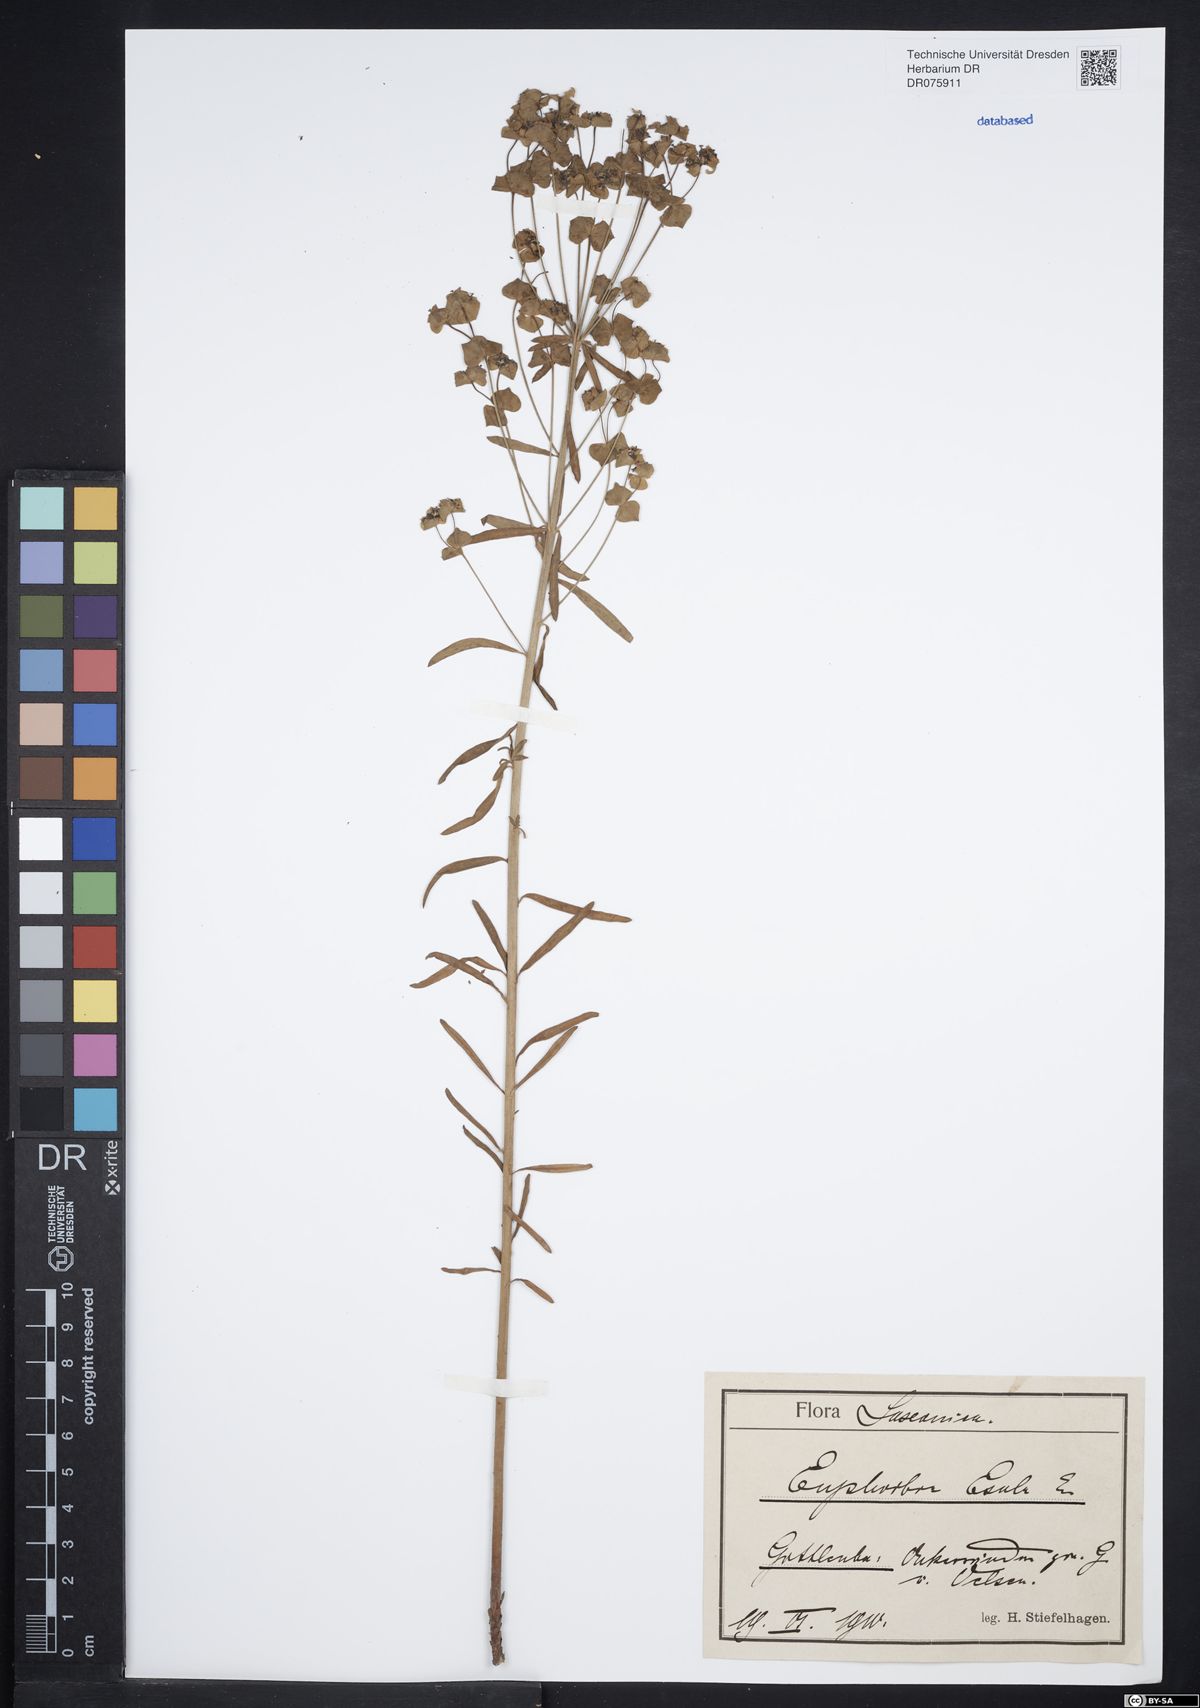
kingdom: Plantae
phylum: Tracheophyta
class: Magnoliopsida
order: Malpighiales
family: Euphorbiaceae
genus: Euphorbia
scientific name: Euphorbia esula
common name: Leafy spurge
